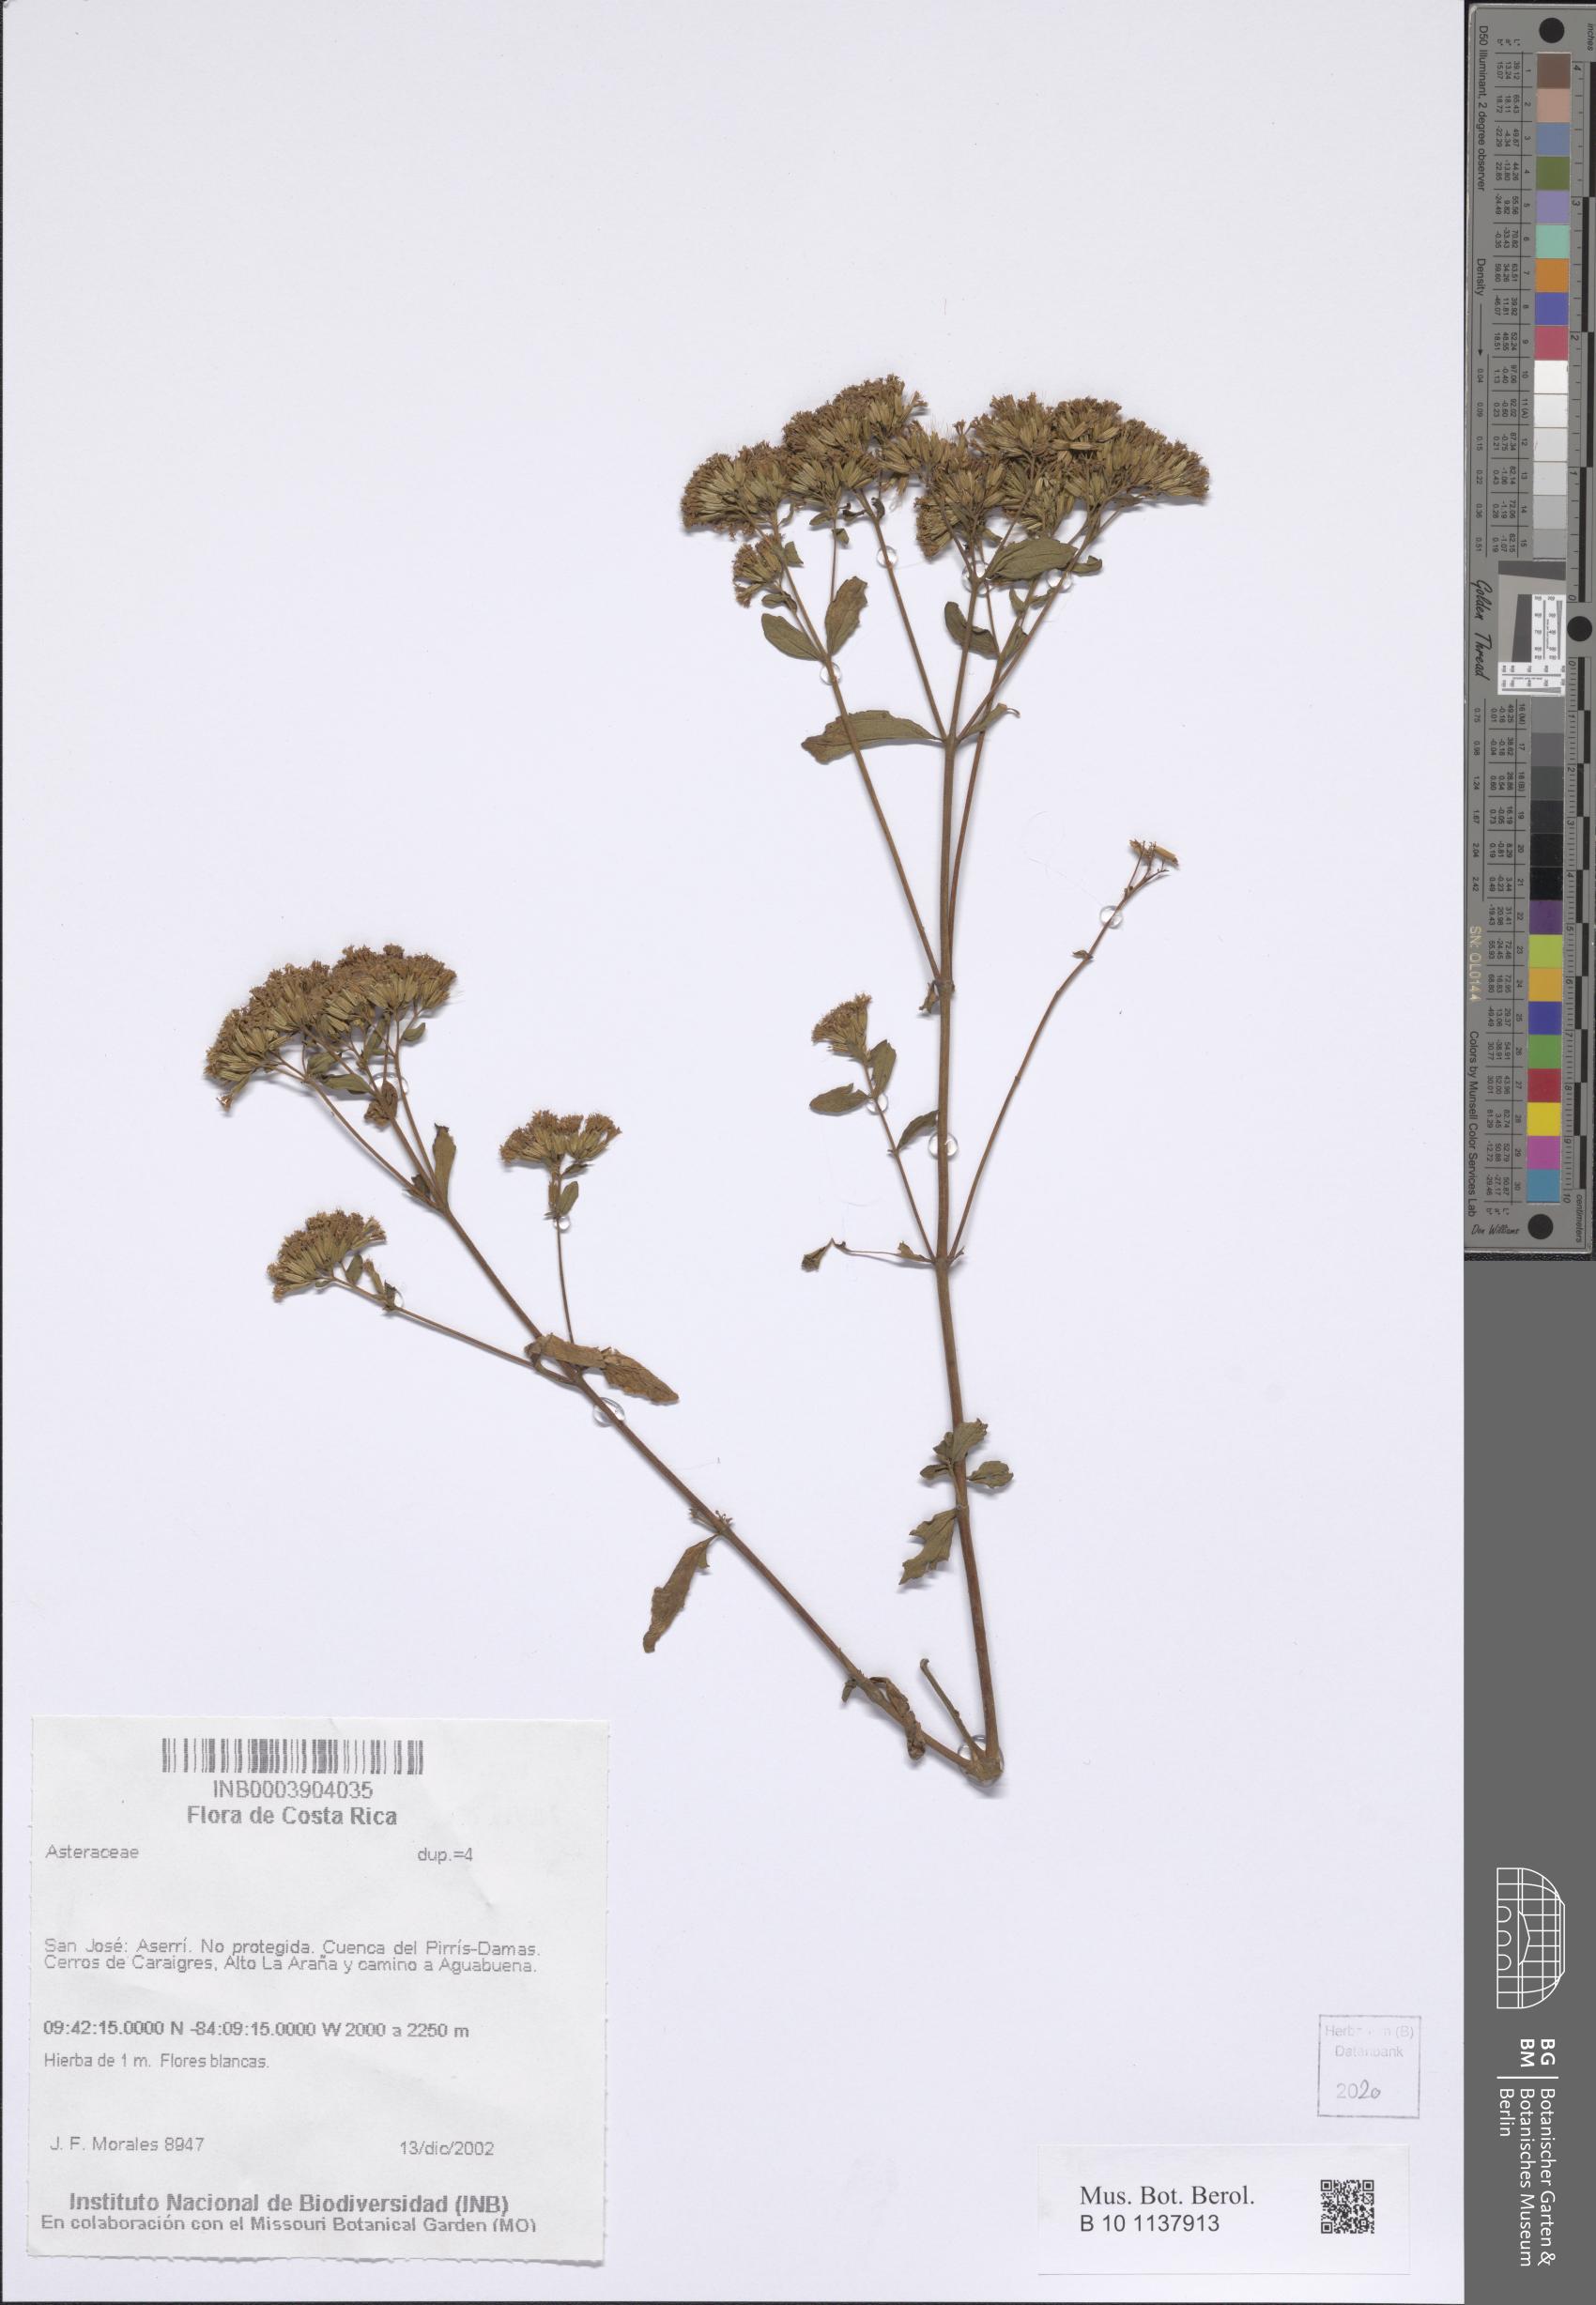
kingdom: Plantae
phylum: Tracheophyta
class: Magnoliopsida
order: Asterales
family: Asteraceae
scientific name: Asteraceae
